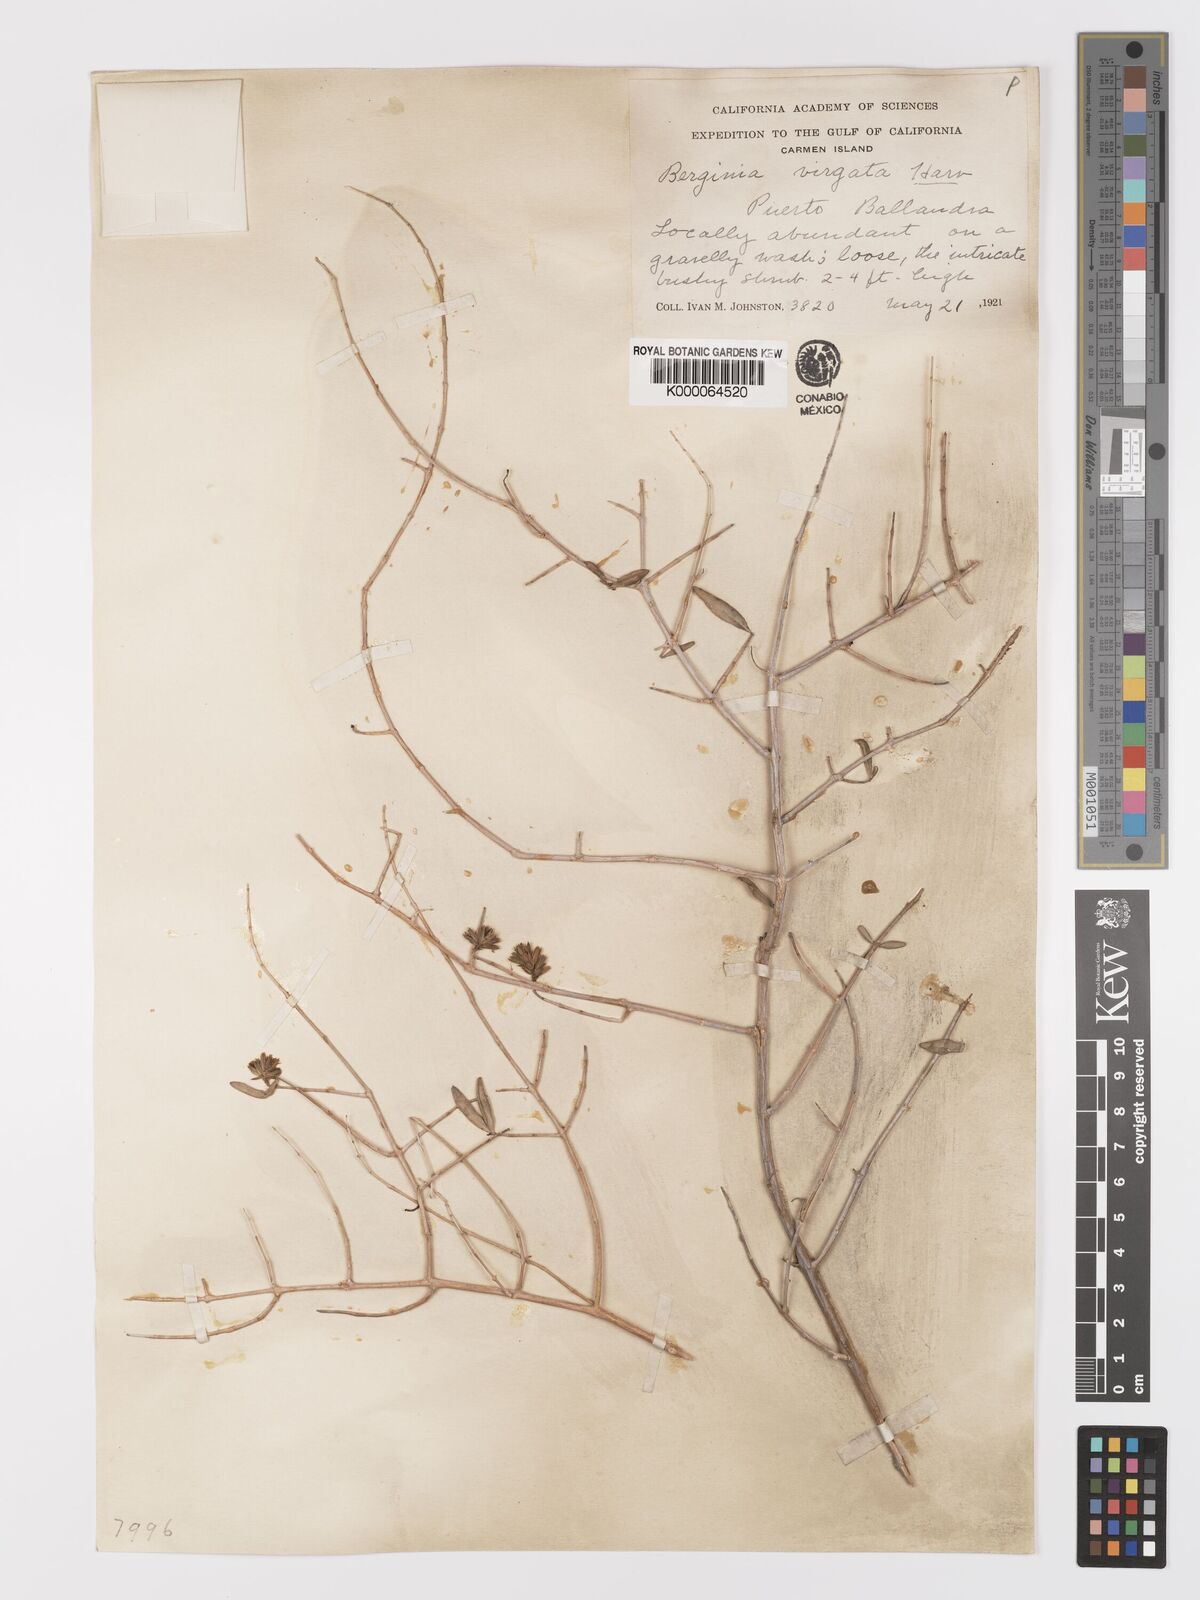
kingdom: Plantae
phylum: Tracheophyta
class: Magnoliopsida
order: Lamiales
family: Acanthaceae
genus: Holographis
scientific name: Holographis virgata
